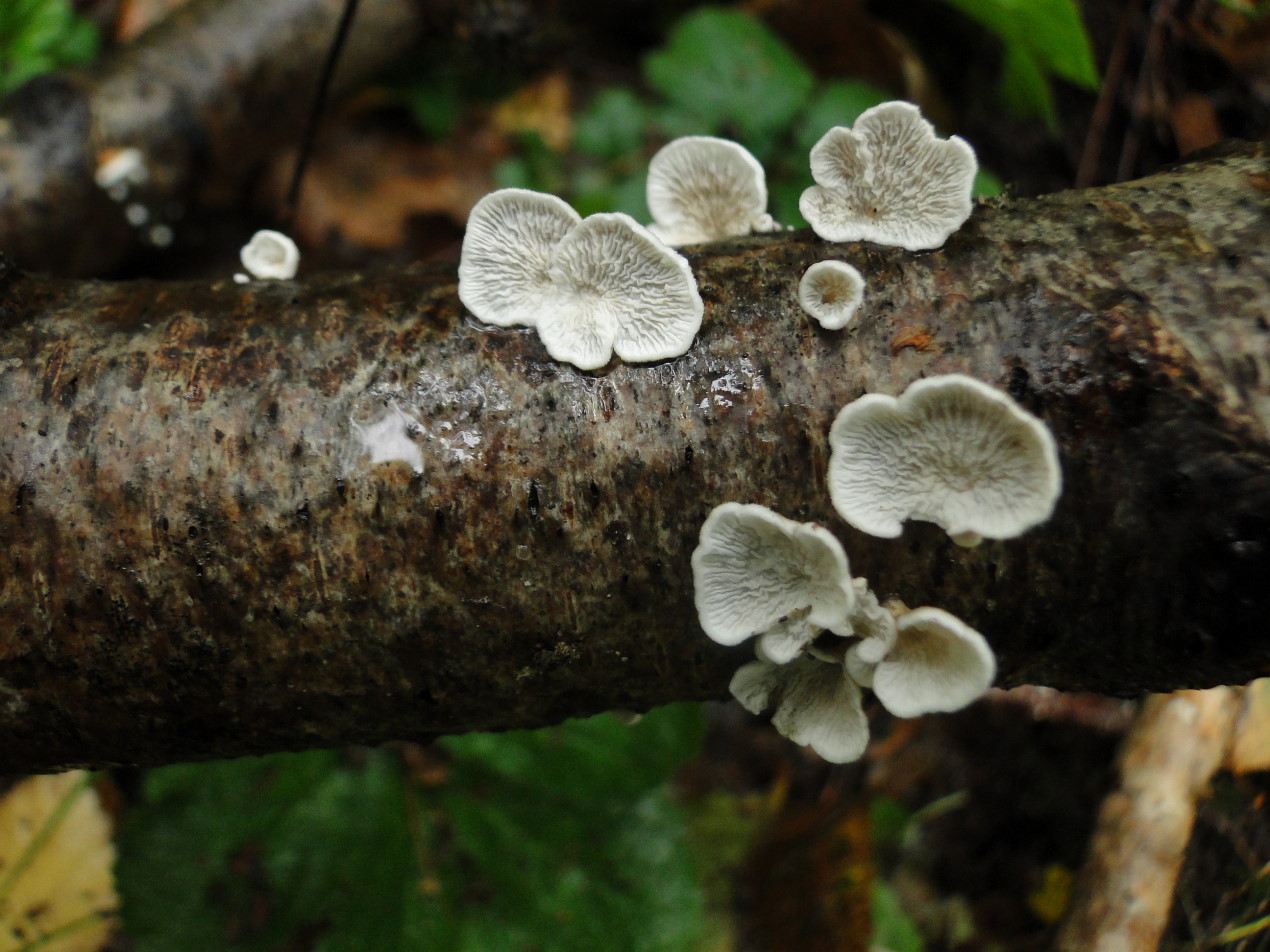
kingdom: Fungi
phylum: Basidiomycota
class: Agaricomycetes
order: Amylocorticiales
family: Amylocorticiaceae
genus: Plicaturopsis
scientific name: Plicaturopsis crispa
